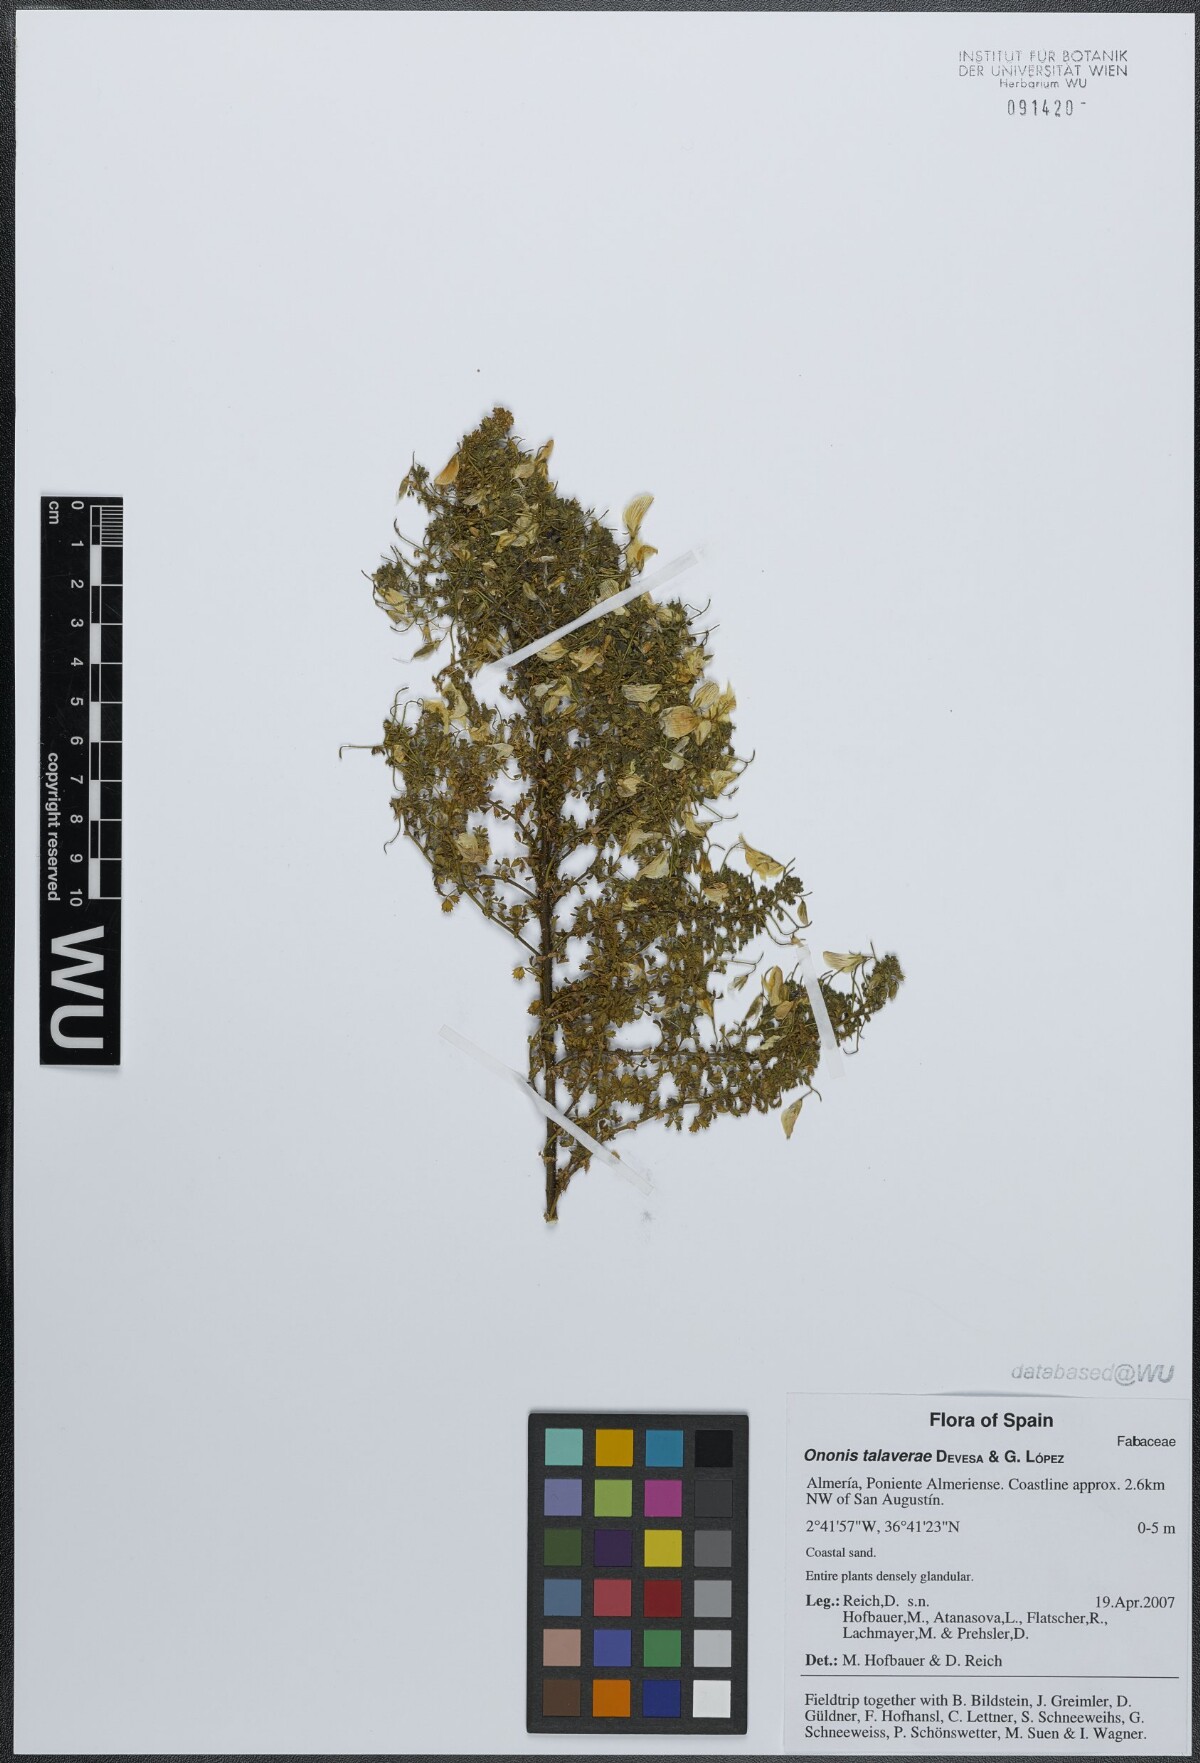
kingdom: Plantae
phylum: Tracheophyta
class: Magnoliopsida
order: Fabales
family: Fabaceae
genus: Ononis
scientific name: Ononis talaverae
